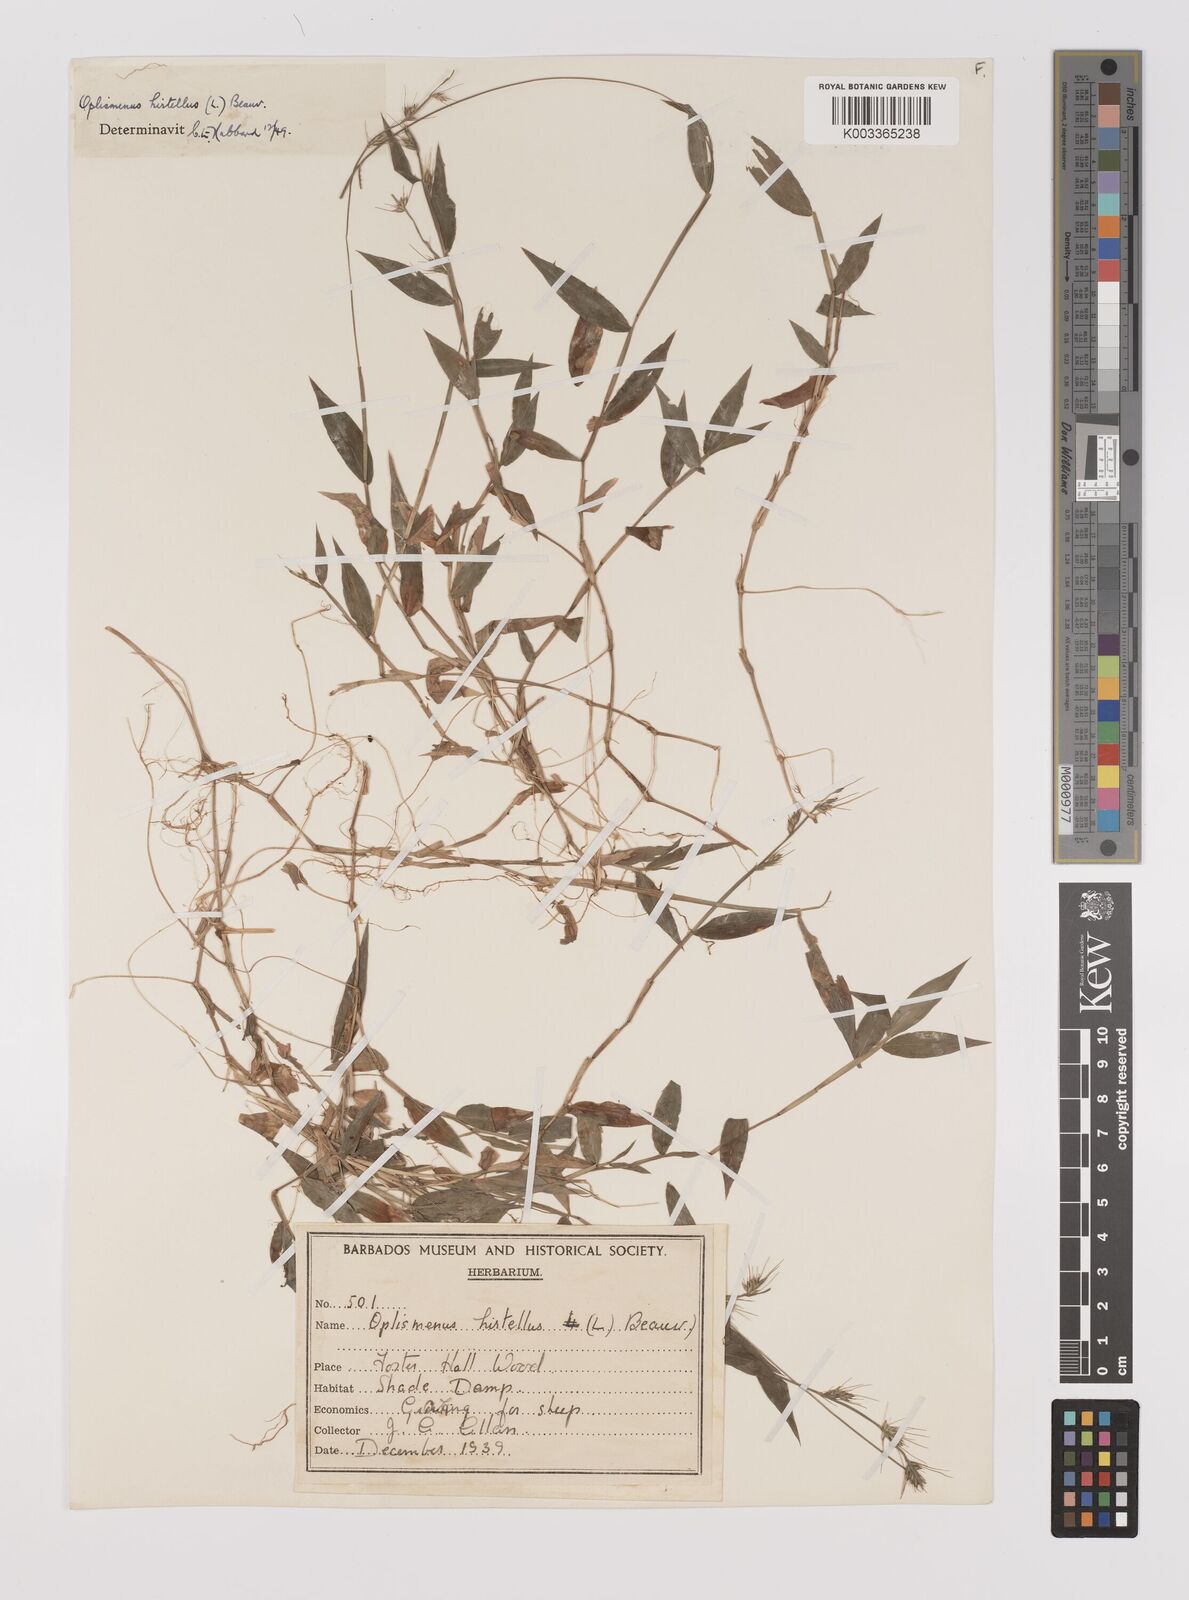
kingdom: Plantae
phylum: Tracheophyta
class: Liliopsida
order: Poales
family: Poaceae
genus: Oplismenus
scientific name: Oplismenus hirtellus
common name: Basketgrass
